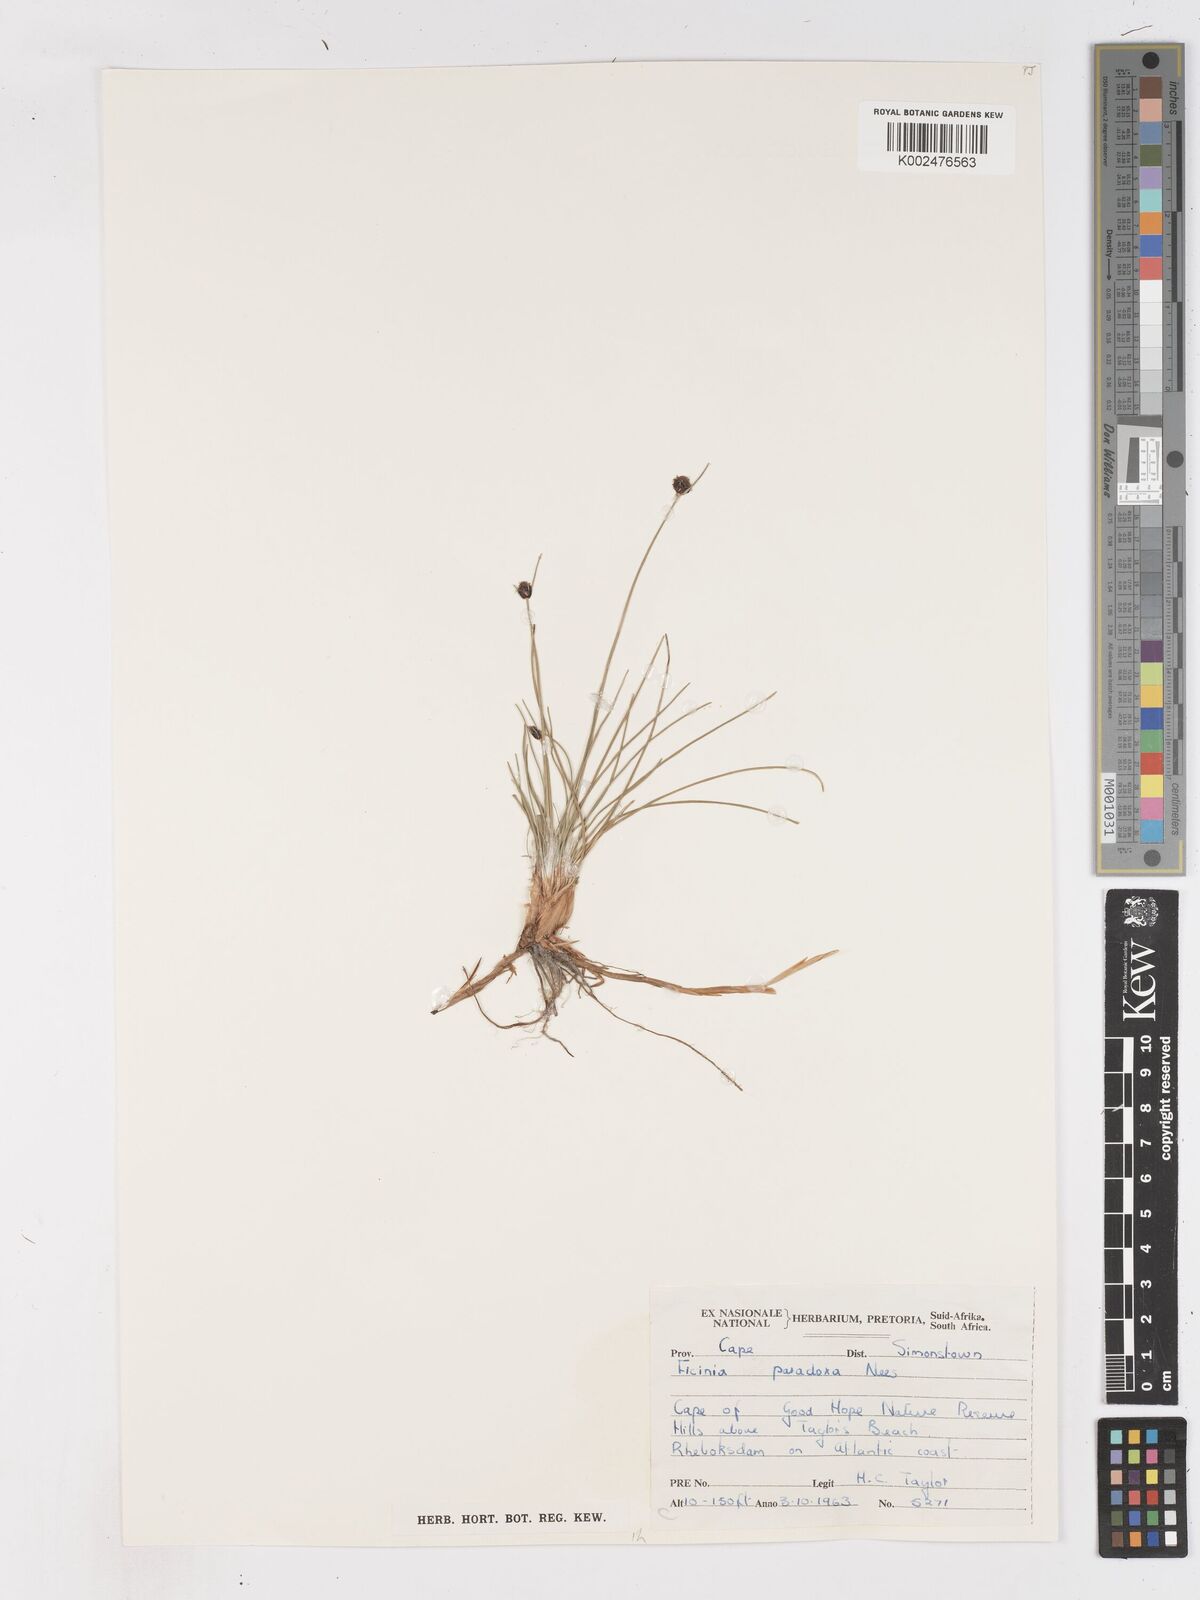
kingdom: Plantae
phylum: Tracheophyta
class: Liliopsida
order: Poales
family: Cyperaceae
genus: Ficinia
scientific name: Ficinia
